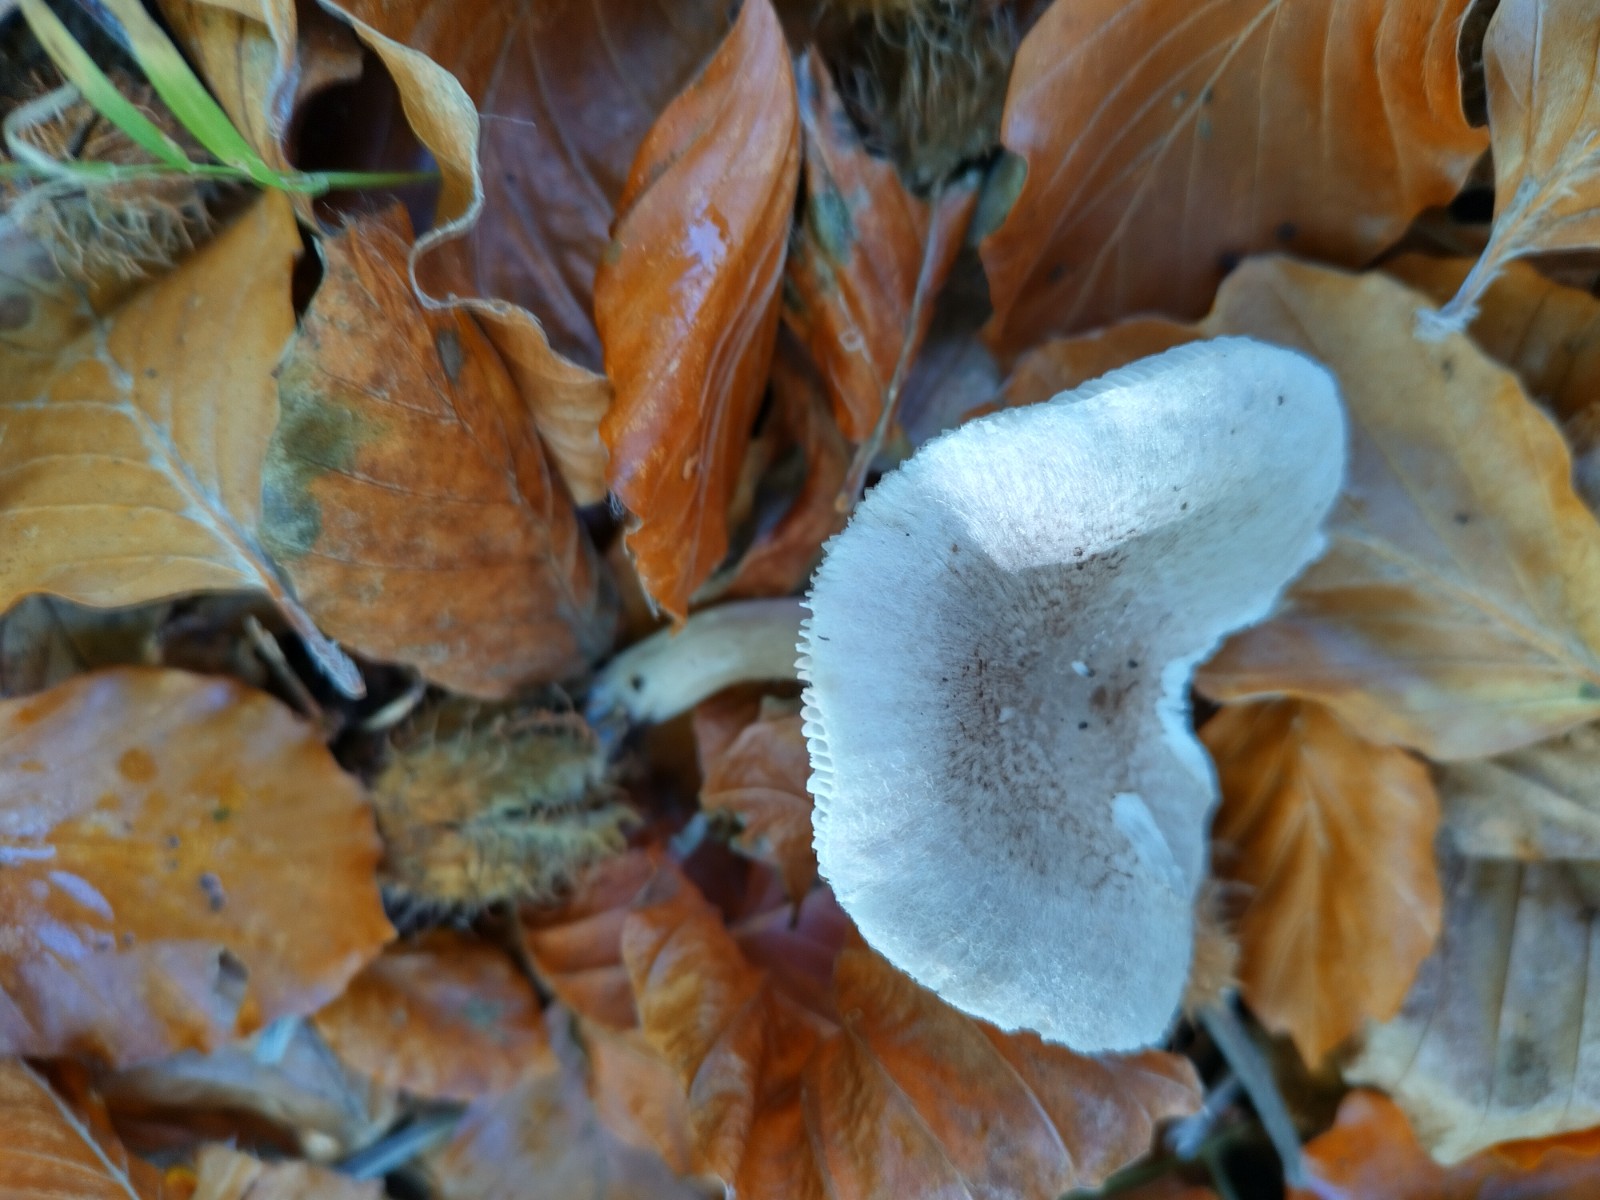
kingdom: Fungi
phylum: Basidiomycota
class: Agaricomycetes
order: Agaricales
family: Tricholomataceae
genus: Tricholoma
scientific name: Tricholoma scalpturatum
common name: gulplettet ridderhat
